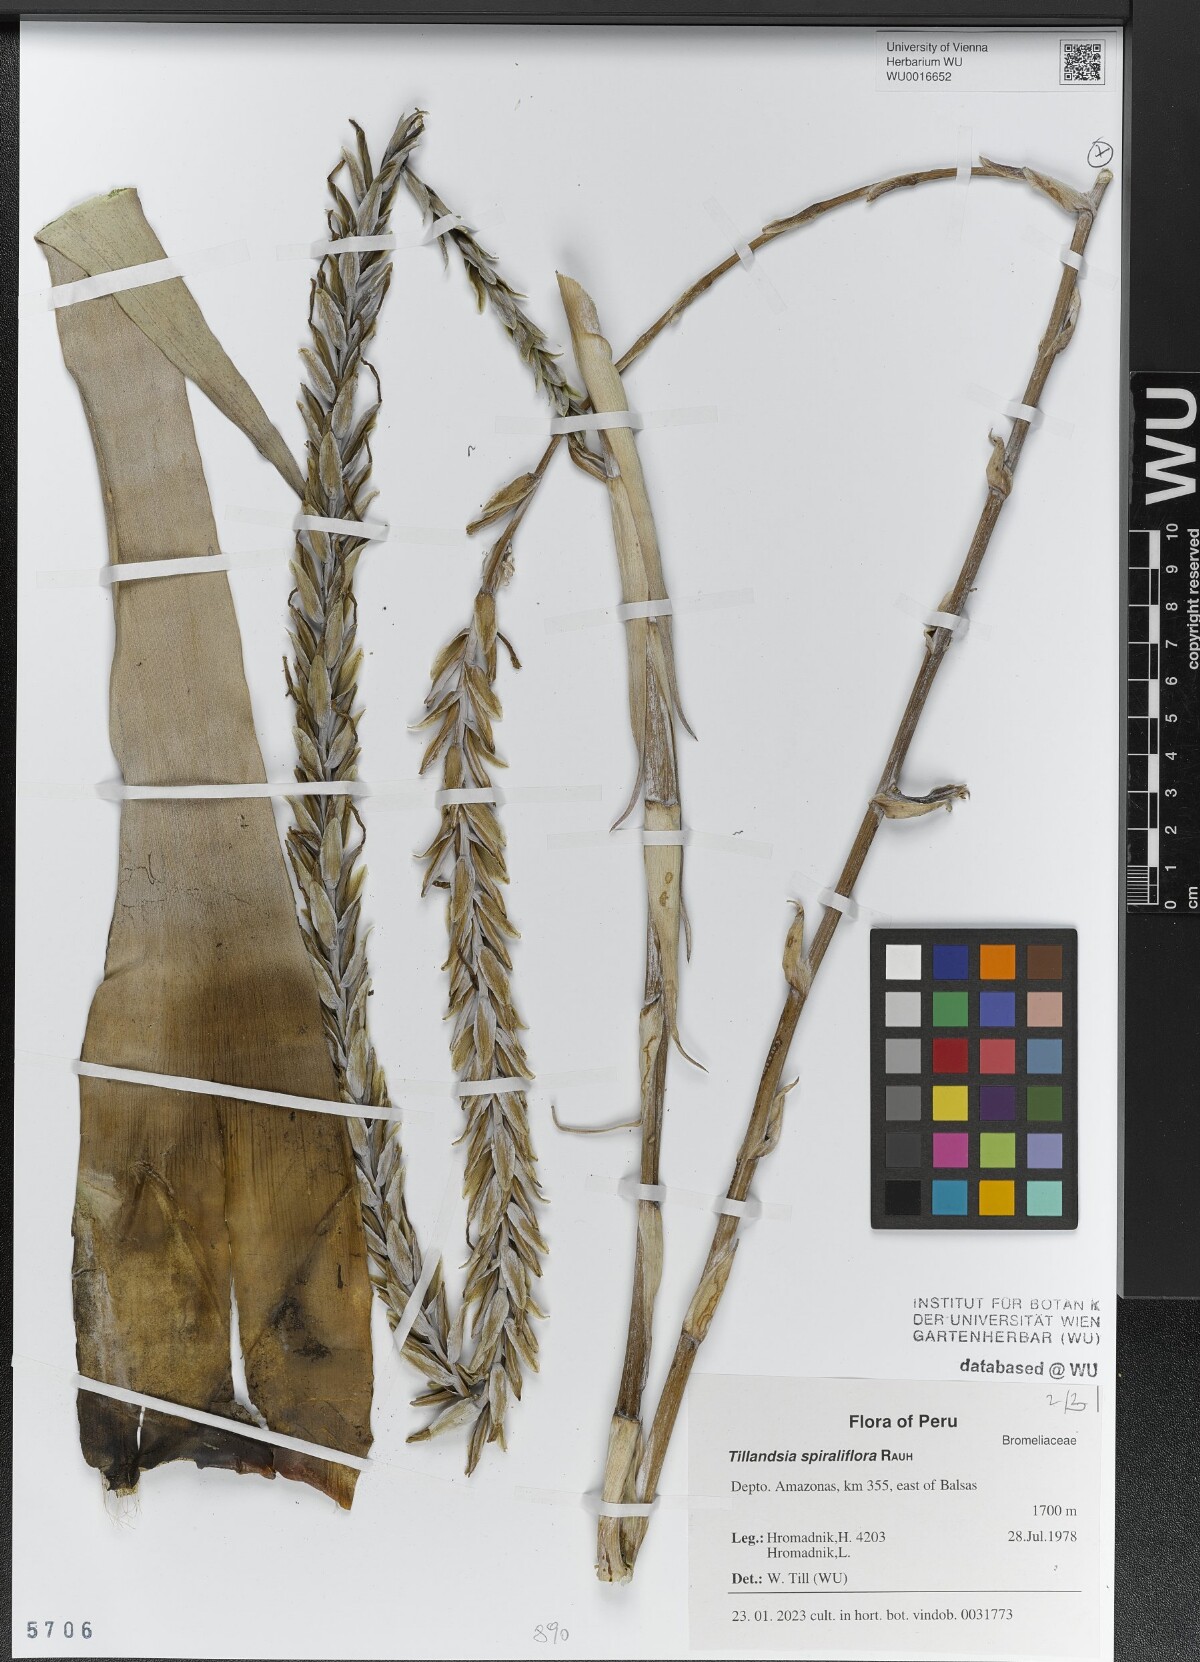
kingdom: Plantae
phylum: Tracheophyta
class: Liliopsida
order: Poales
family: Bromeliaceae
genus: Tillandsia
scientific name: Tillandsia spiraliflora
